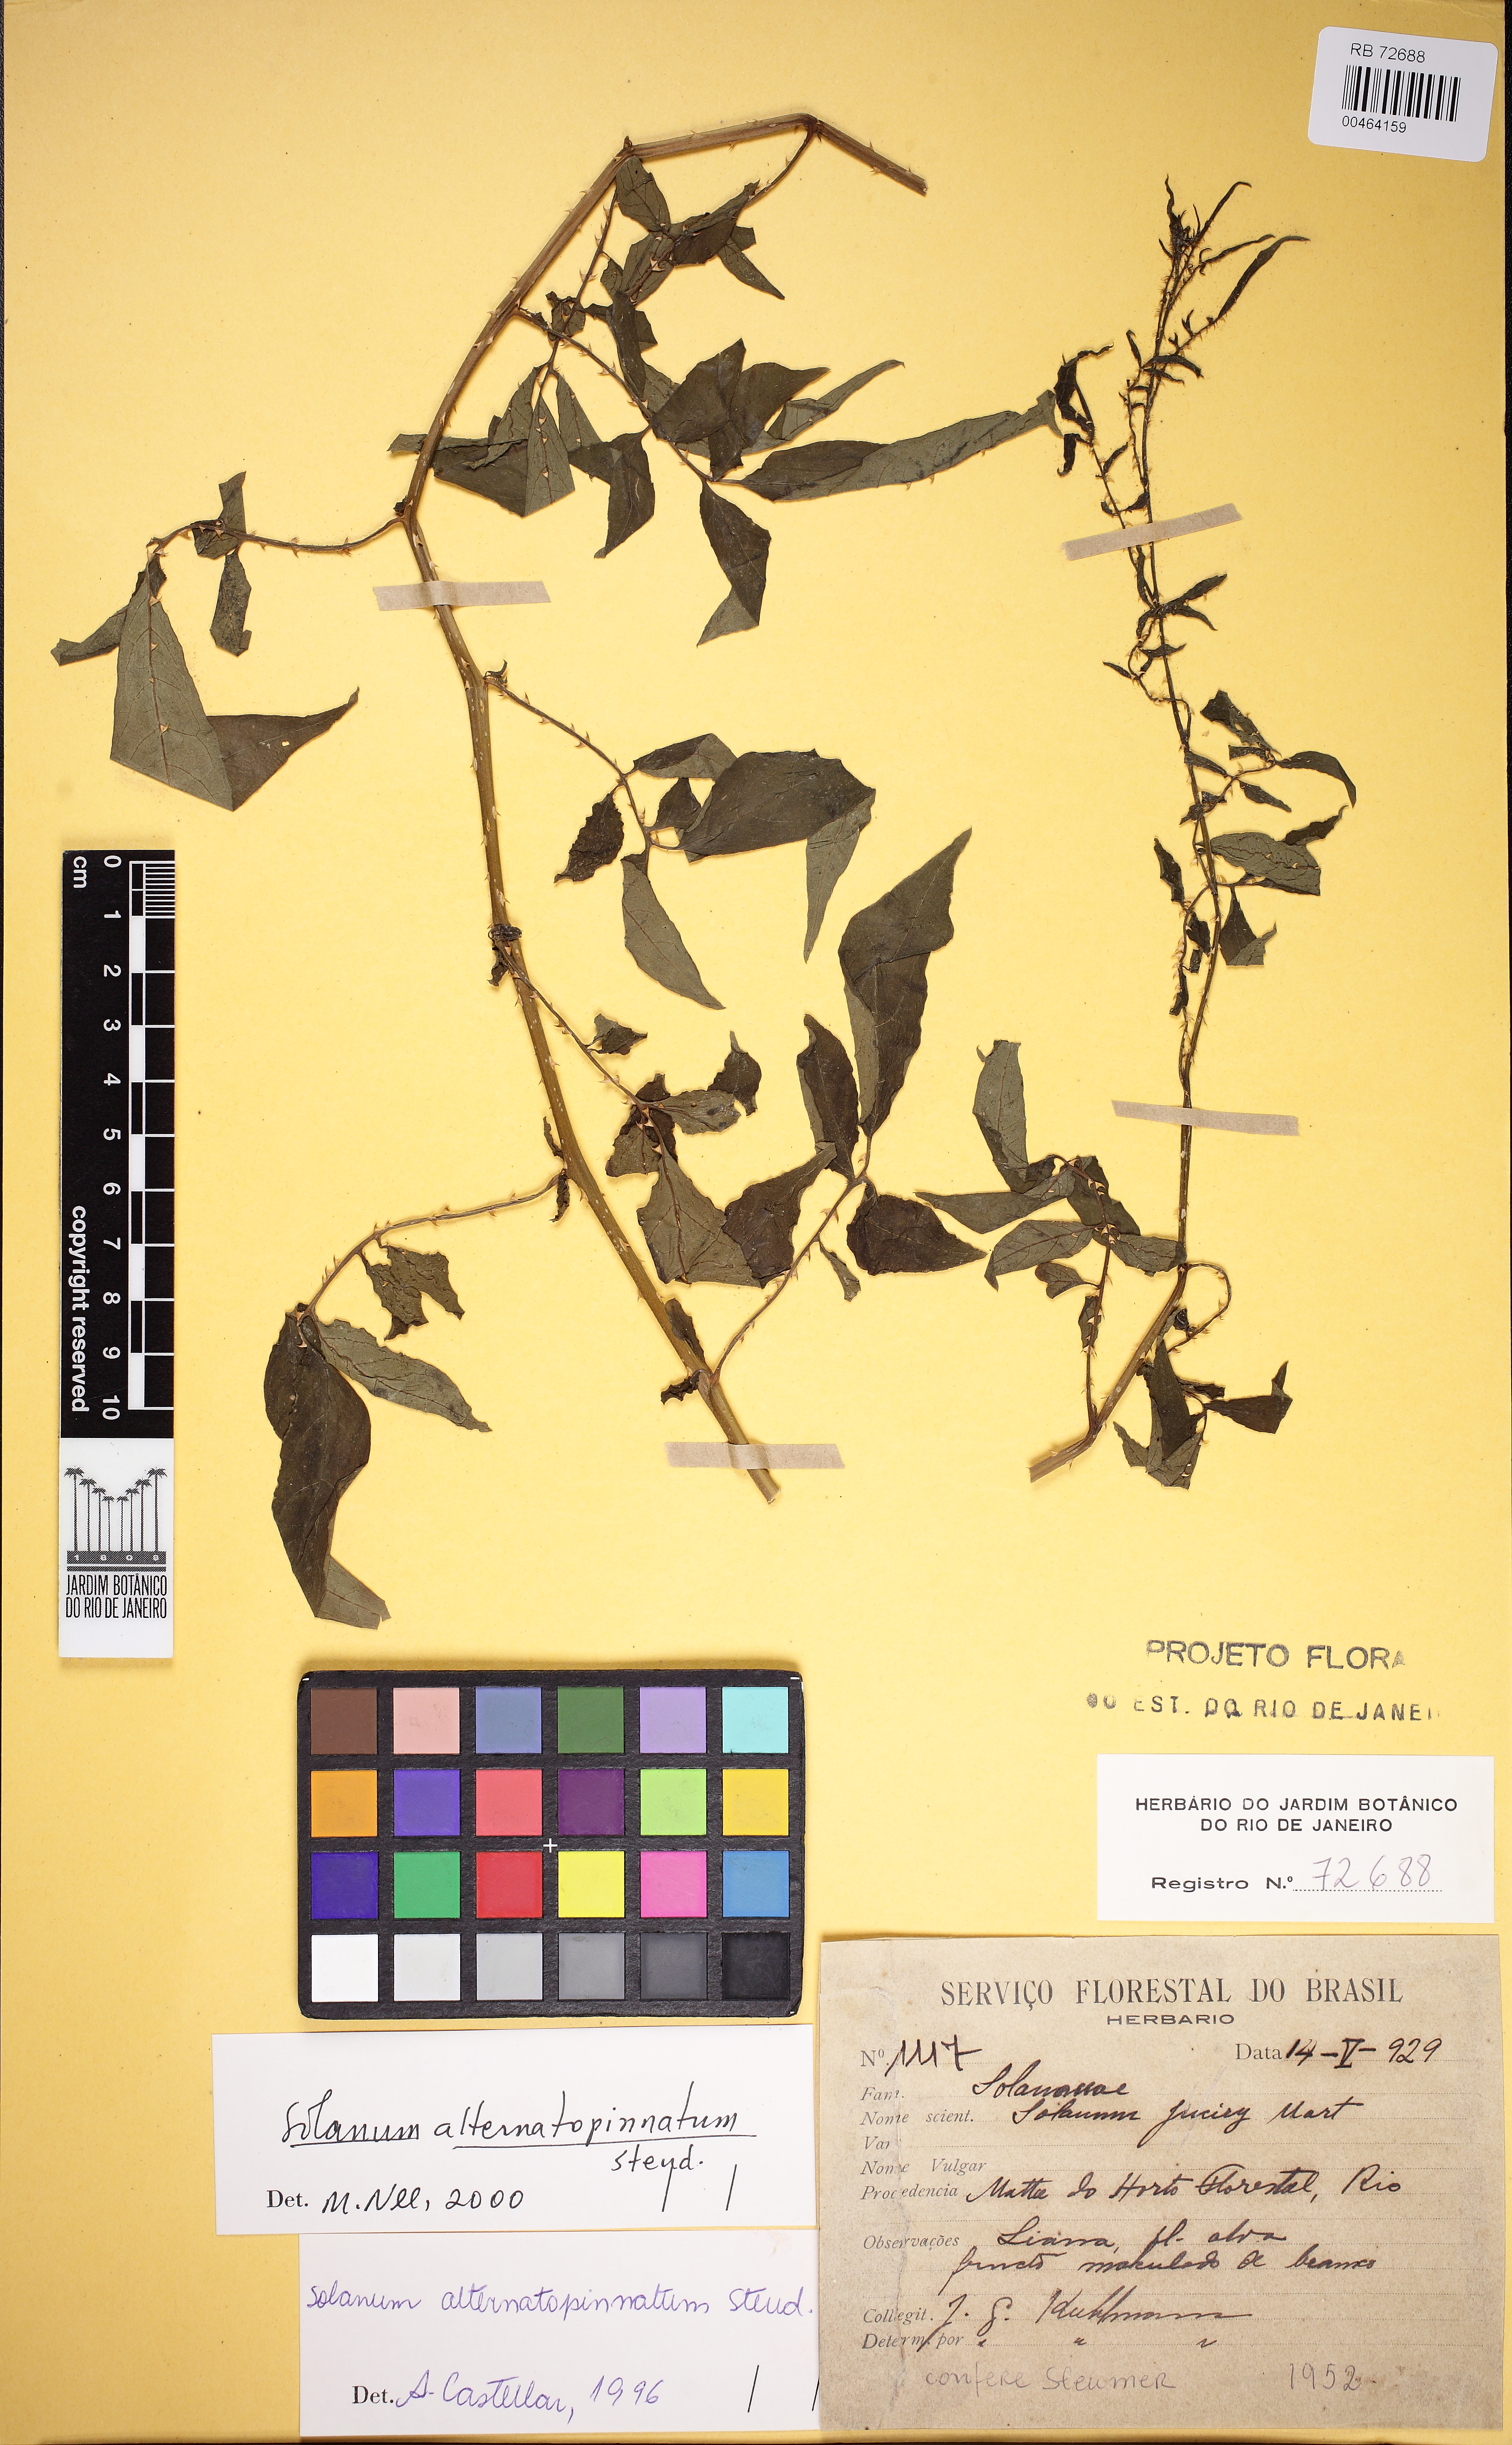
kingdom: Plantae
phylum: Tracheophyta
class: Magnoliopsida
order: Solanales
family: Solanaceae
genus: Solanum
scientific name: Solanum alternatopinnatum
